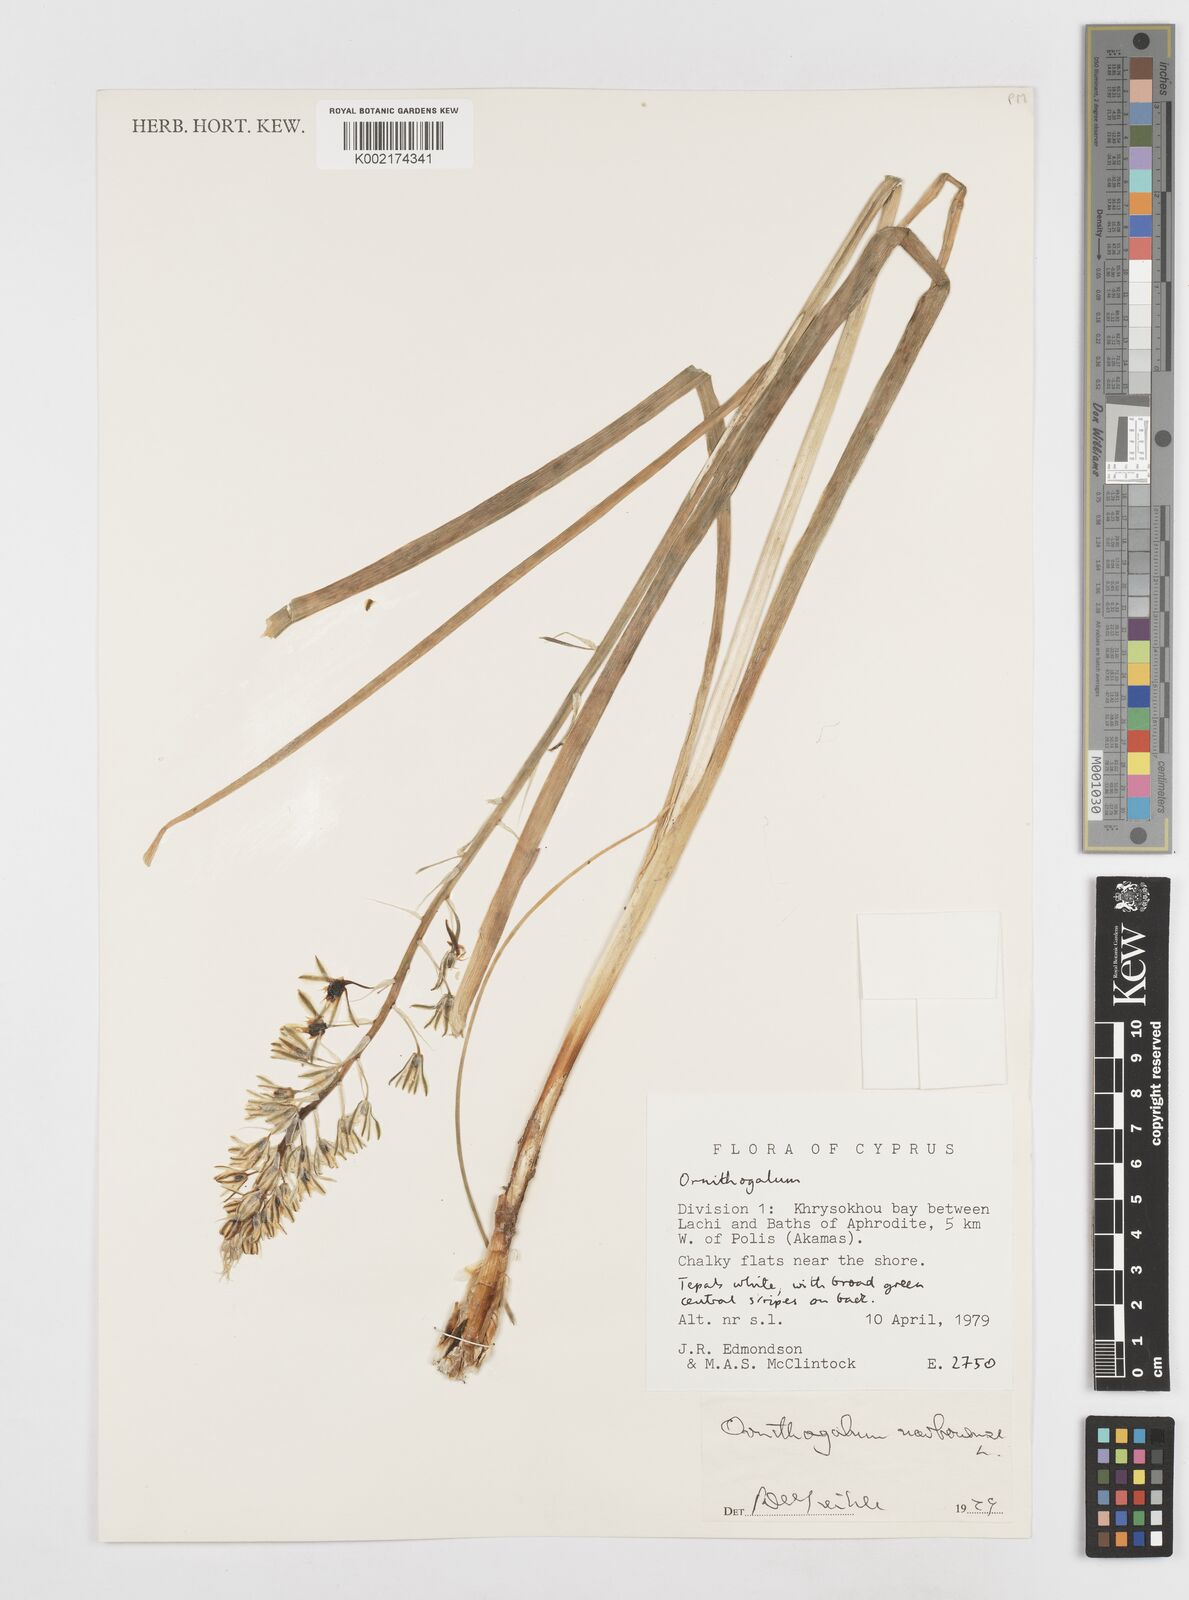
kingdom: Plantae
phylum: Tracheophyta
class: Liliopsida
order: Asparagales
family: Asparagaceae
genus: Ornithogalum
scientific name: Ornithogalum narbonense
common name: Bath-asparagus
